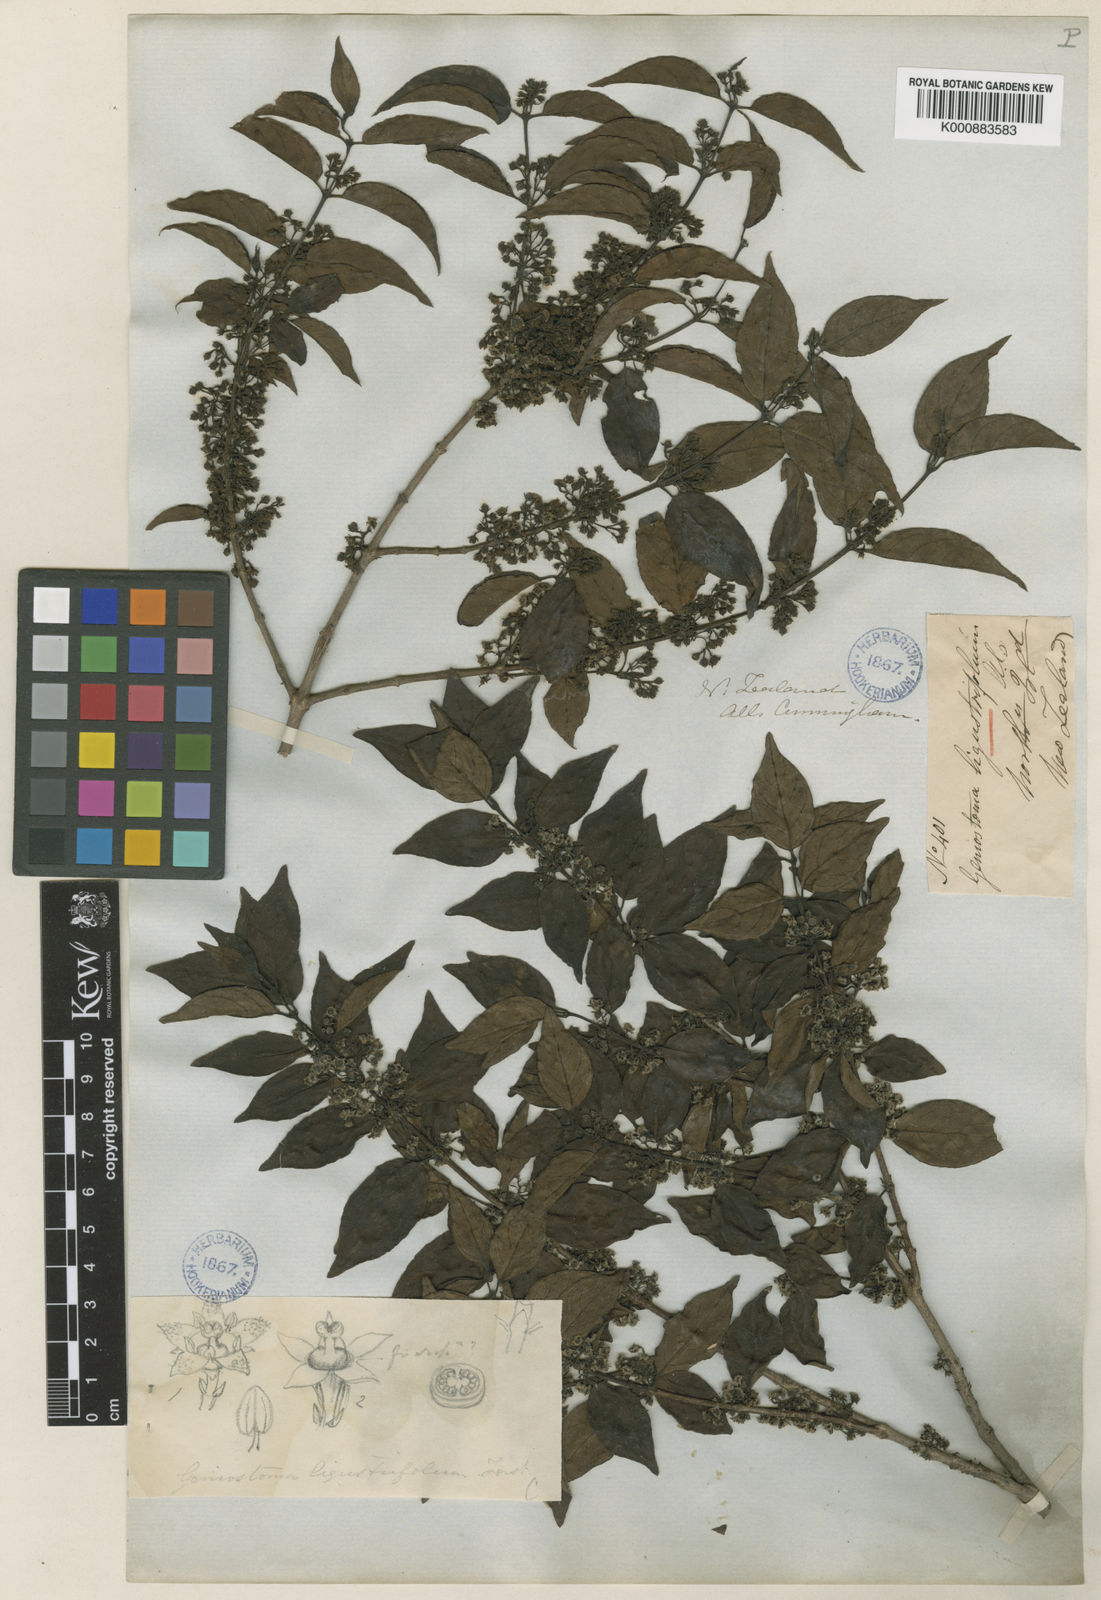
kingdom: Plantae
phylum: Tracheophyta
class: Magnoliopsida
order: Gentianales
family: Loganiaceae
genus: Geniostoma
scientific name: Geniostoma ligustrifolium
